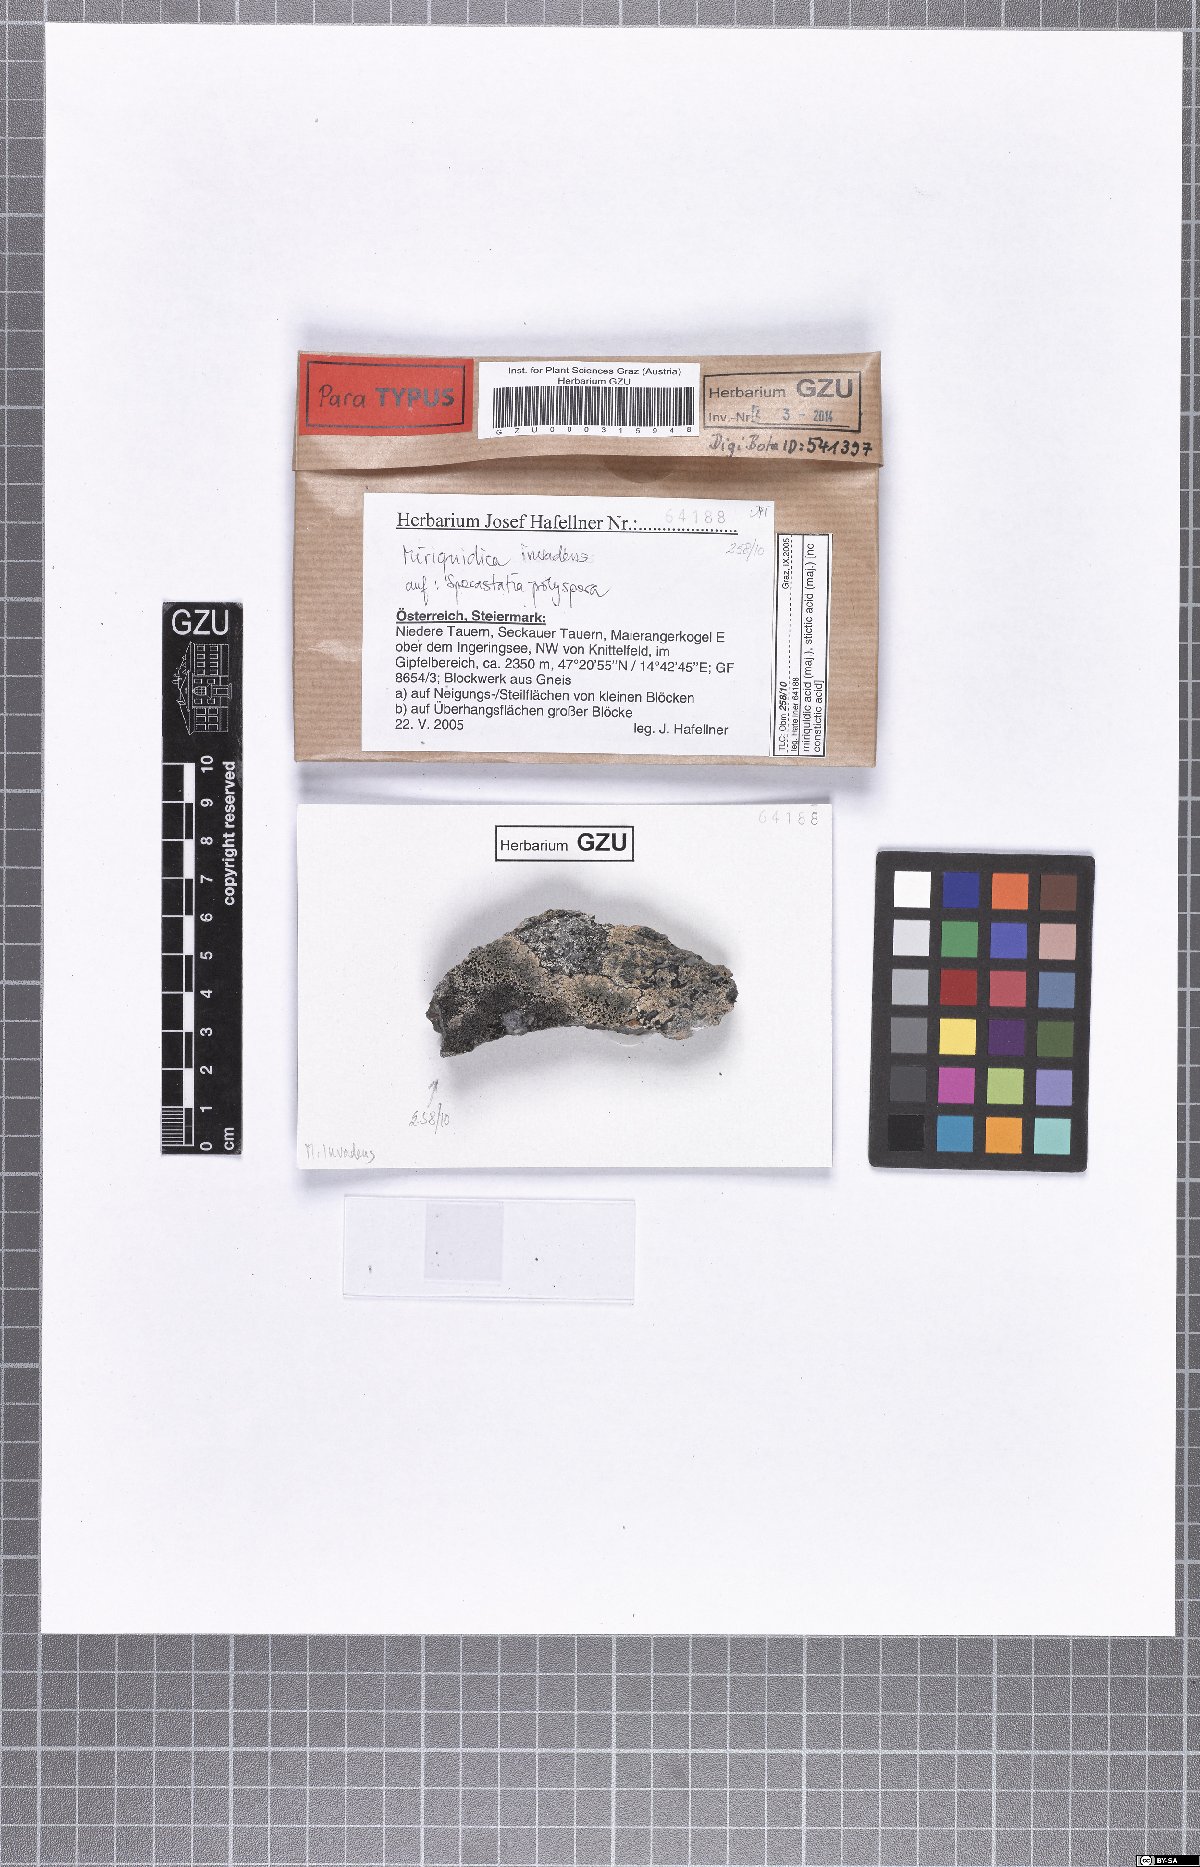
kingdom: Fungi
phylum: Ascomycota
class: Lecanoromycetes
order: Lecanorales
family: Lecanoraceae
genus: Miriquidica
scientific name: Miriquidica invadens
